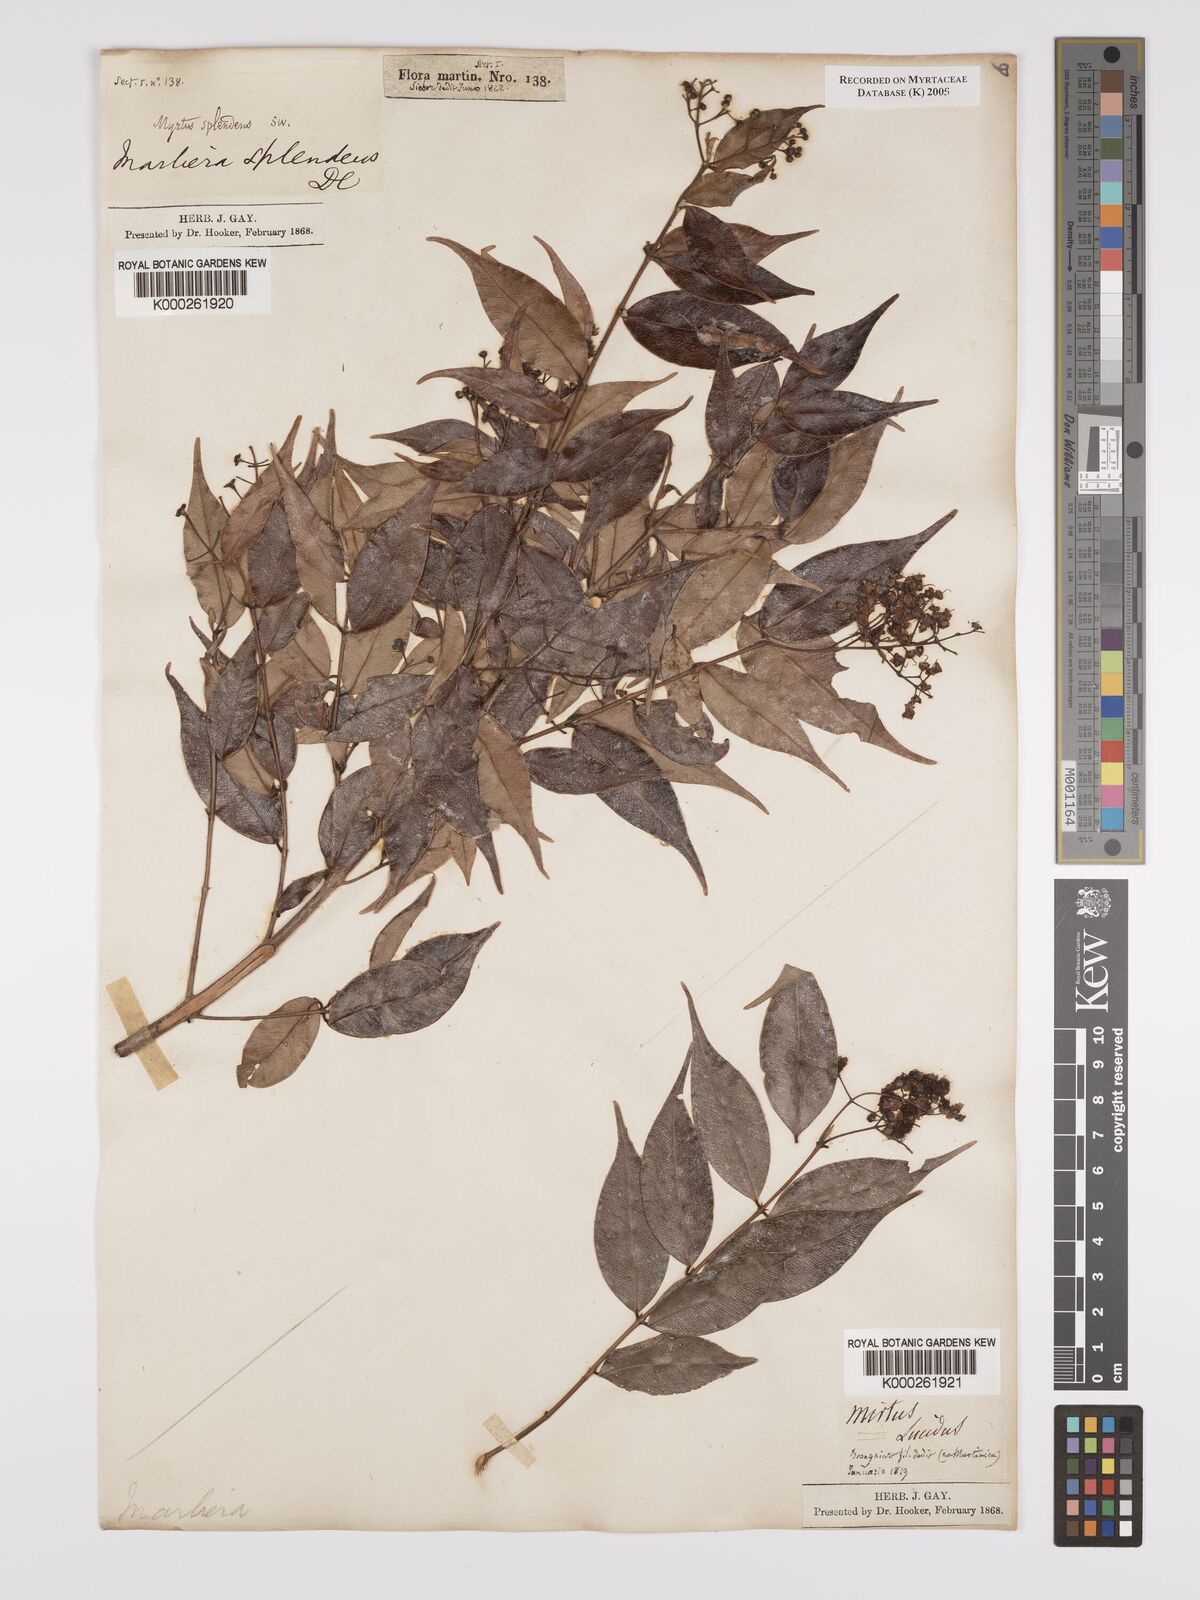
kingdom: Plantae
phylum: Tracheophyta
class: Magnoliopsida
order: Myrtales
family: Myrtaceae
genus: Myrcia
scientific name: Myrcia splendens
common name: Surinam cherry
